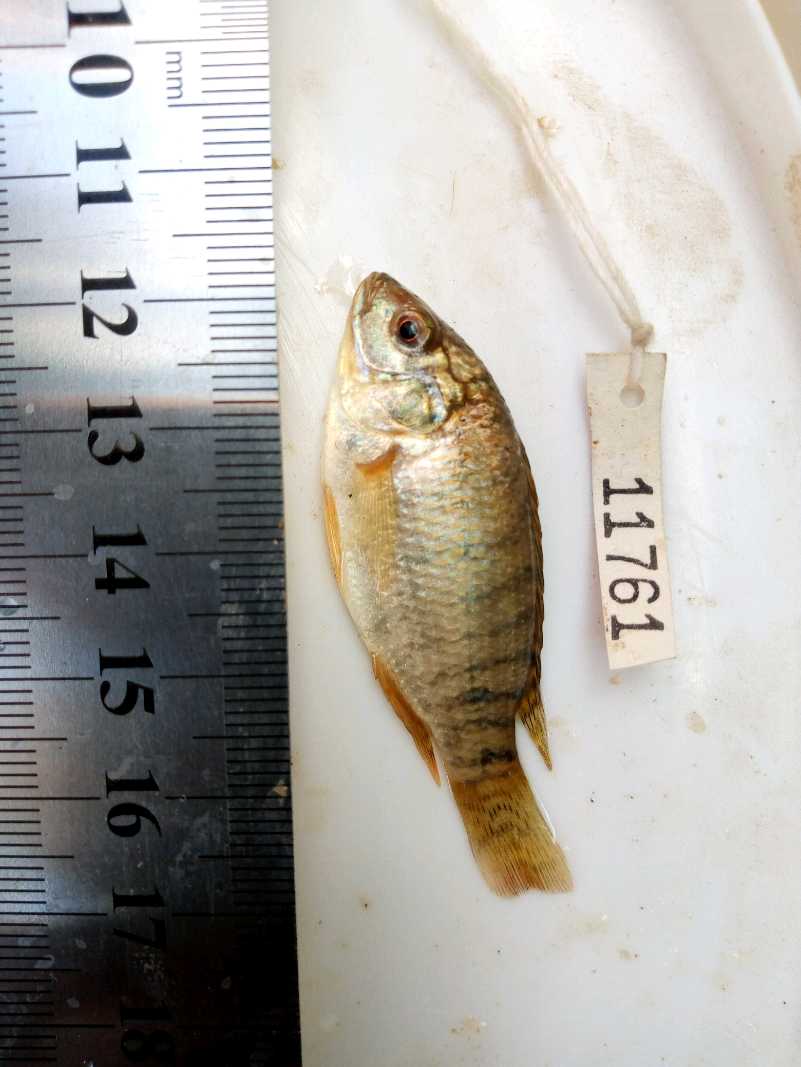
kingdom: Animalia
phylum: Chordata
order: Perciformes
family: Cichlidae
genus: Oreochromis
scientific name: Oreochromis spilurus
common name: Sabaki tilapia
